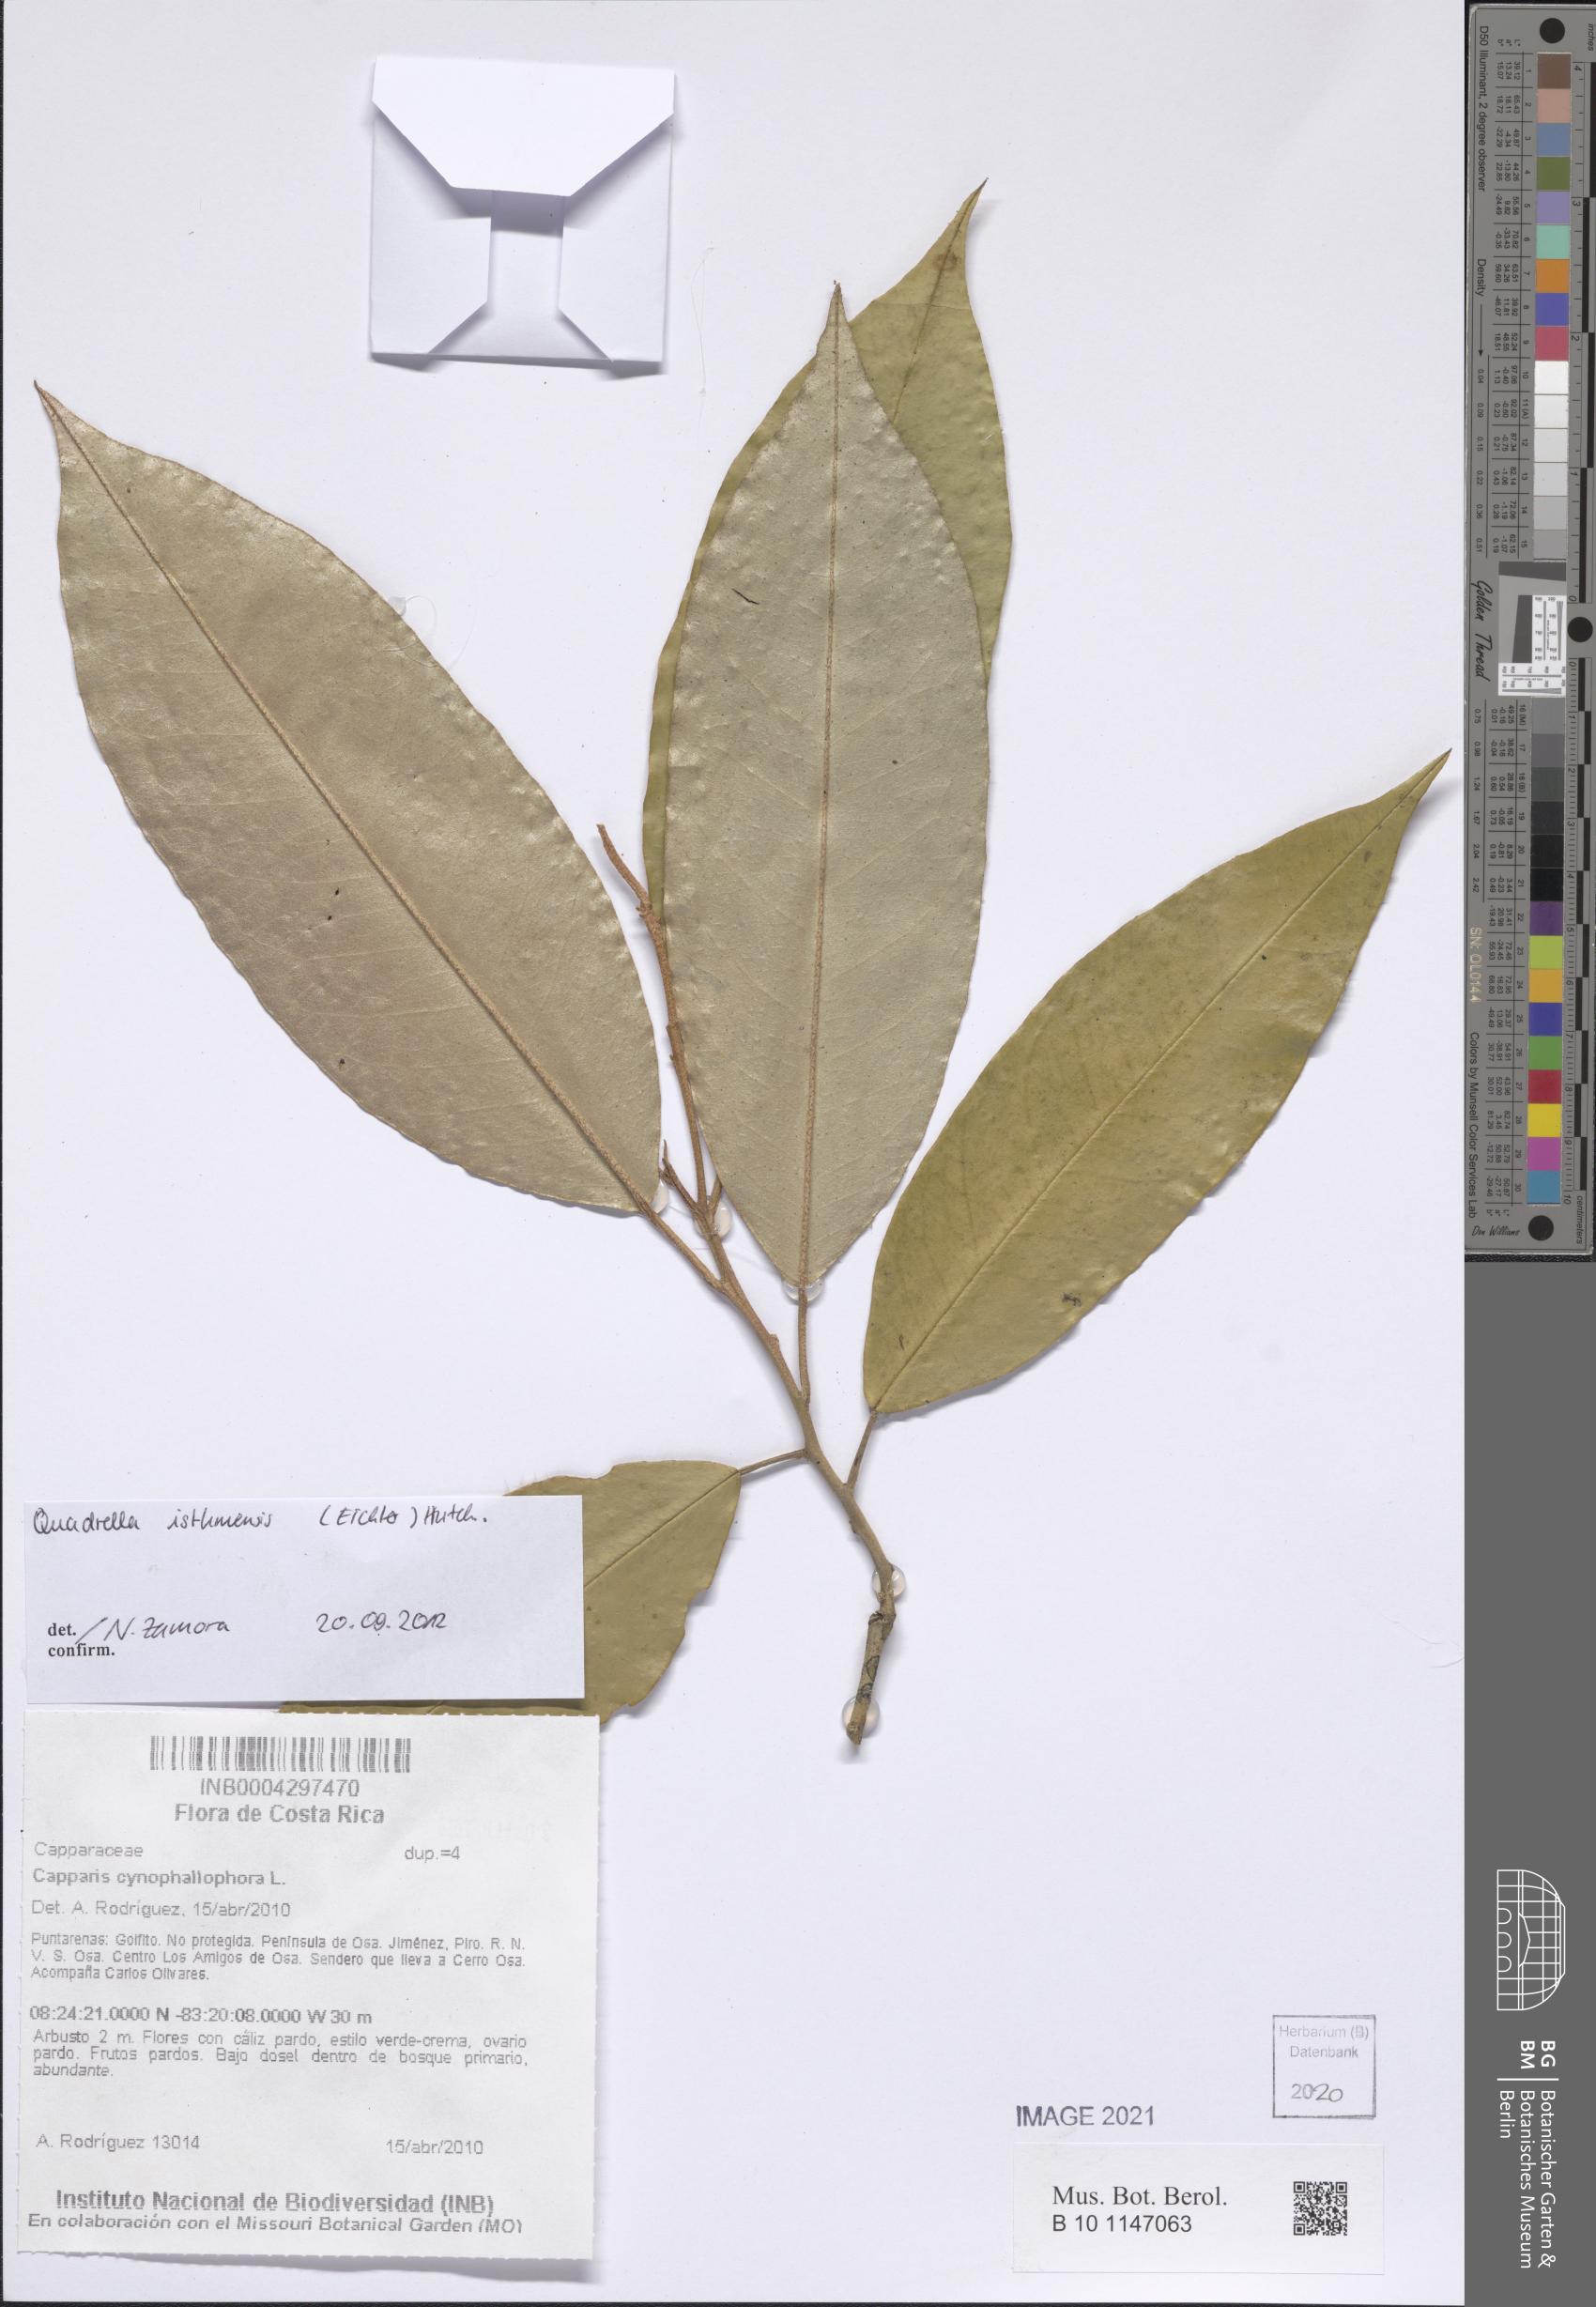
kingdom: Plantae
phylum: Tracheophyta
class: Magnoliopsida
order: Brassicales
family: Capparaceae
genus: Quadrella
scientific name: Quadrella isthmensis
